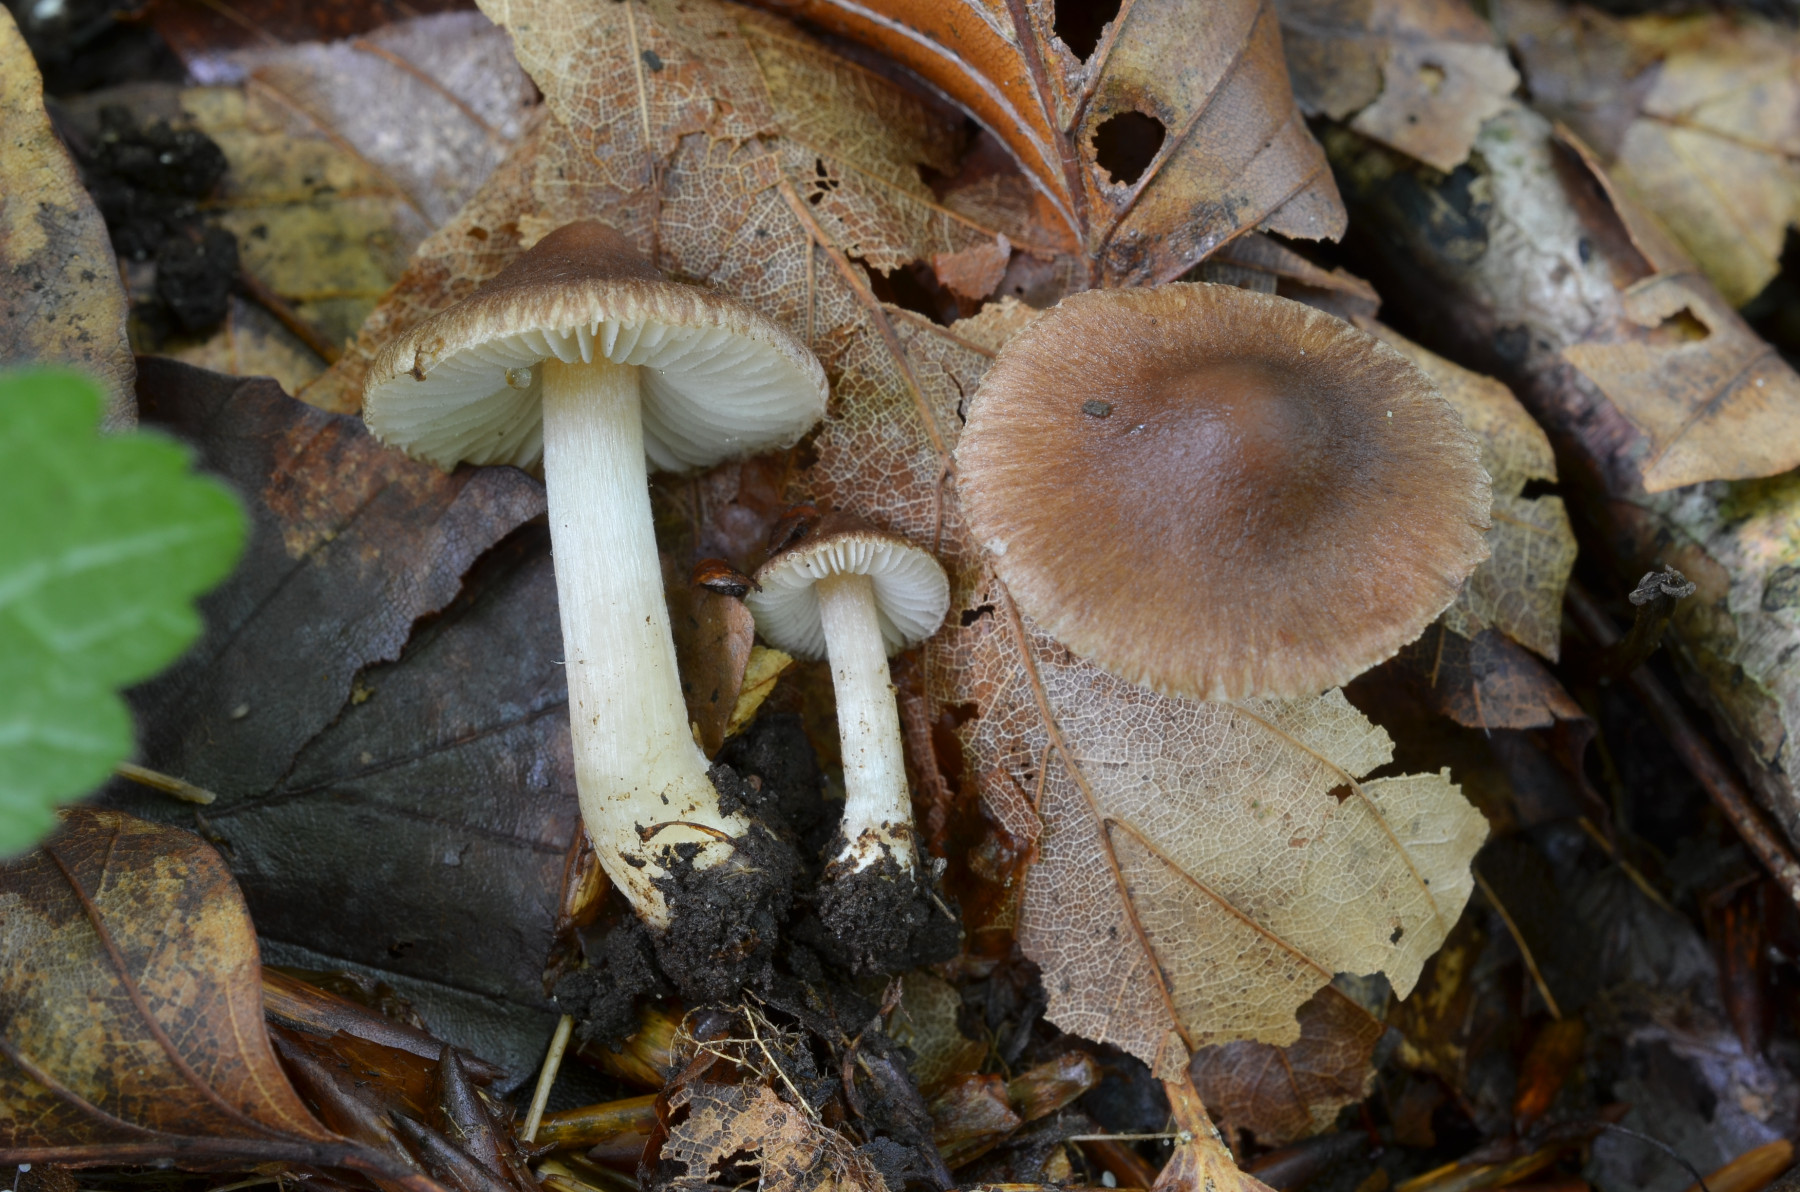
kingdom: Fungi
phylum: Basidiomycota
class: Agaricomycetes
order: Agaricales
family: Inocybaceae
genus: Inocybe
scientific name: Inocybe beatifica
